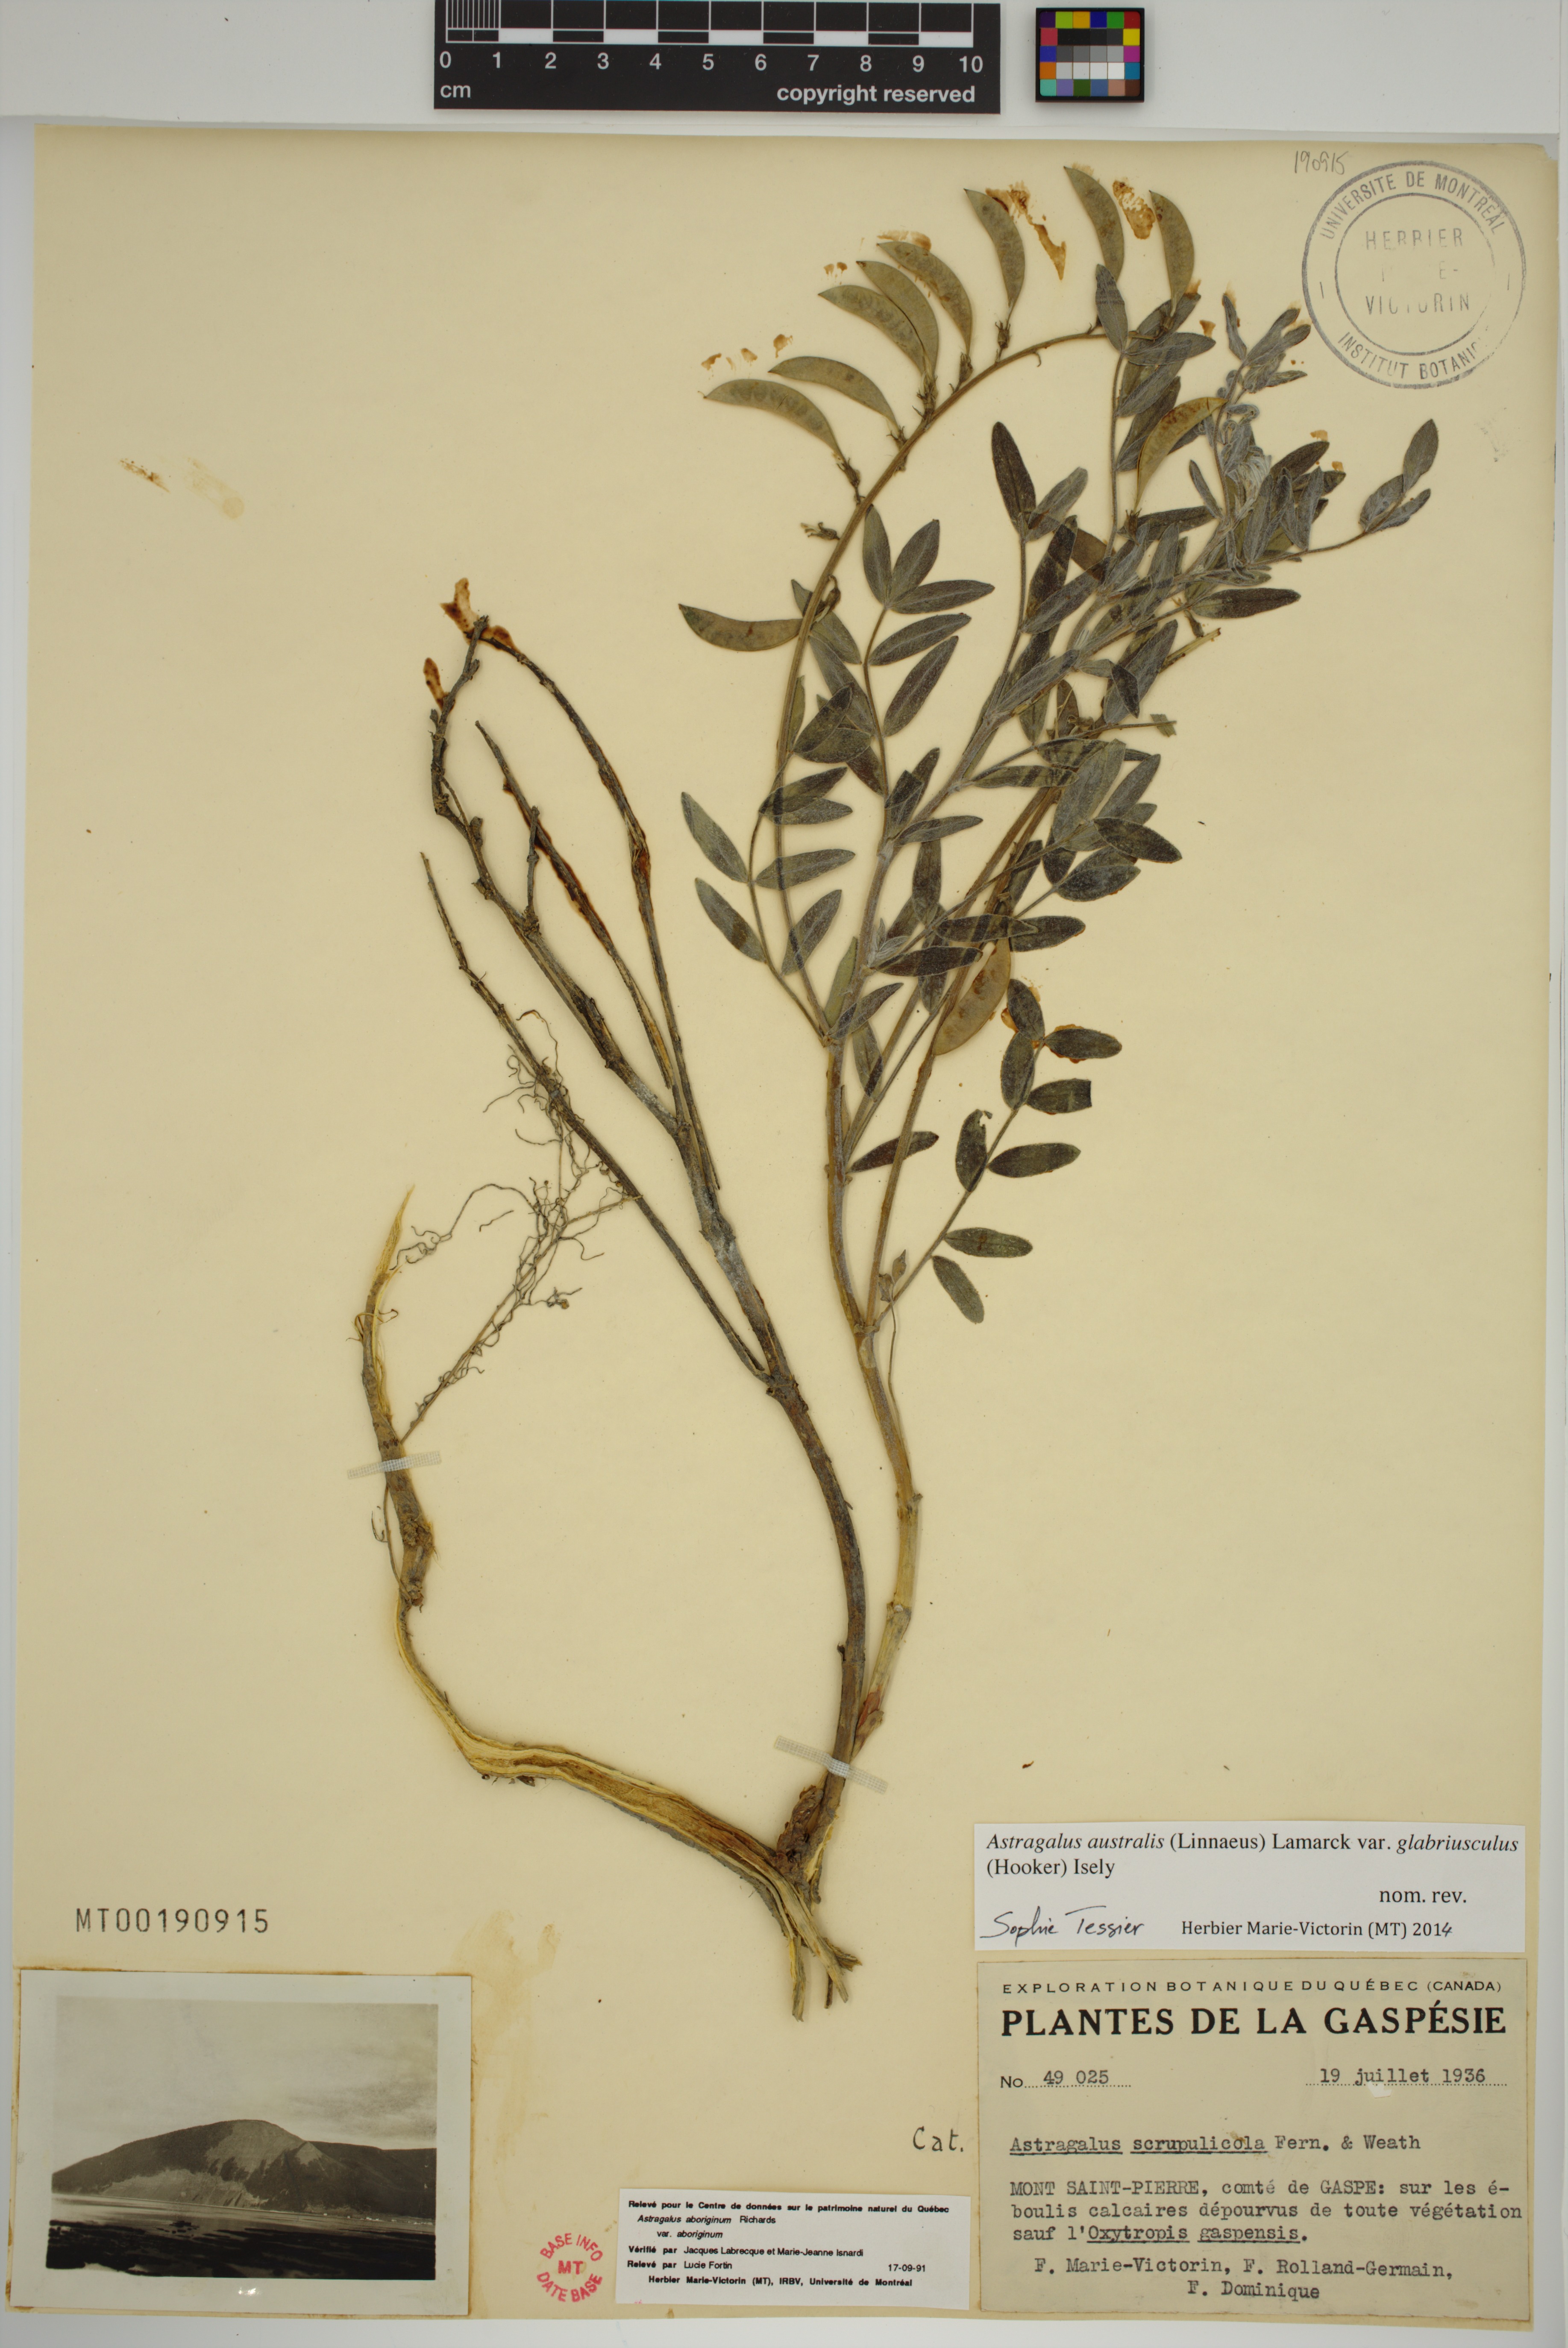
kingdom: Plantae
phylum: Tracheophyta
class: Magnoliopsida
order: Fabales
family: Fabaceae
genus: Astragalus
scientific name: Astragalus aboriginorum
